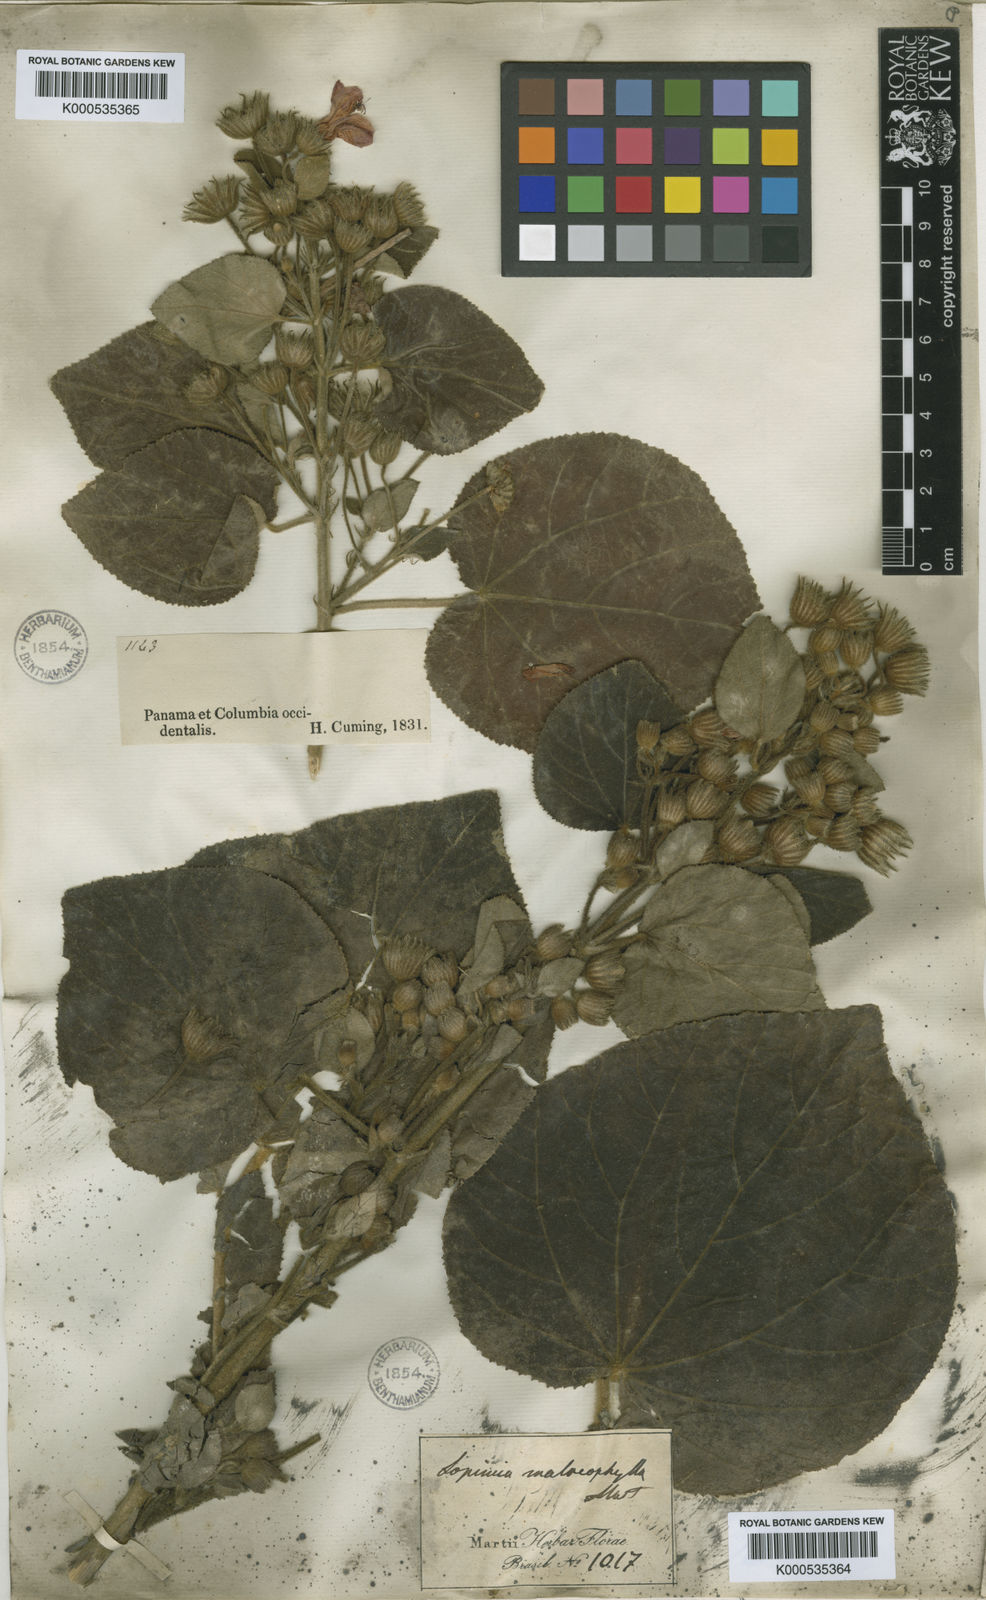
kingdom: Plantae
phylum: Tracheophyta
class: Magnoliopsida
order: Malvales
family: Malvaceae
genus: Pavonia
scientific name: Pavonia malacophylla
